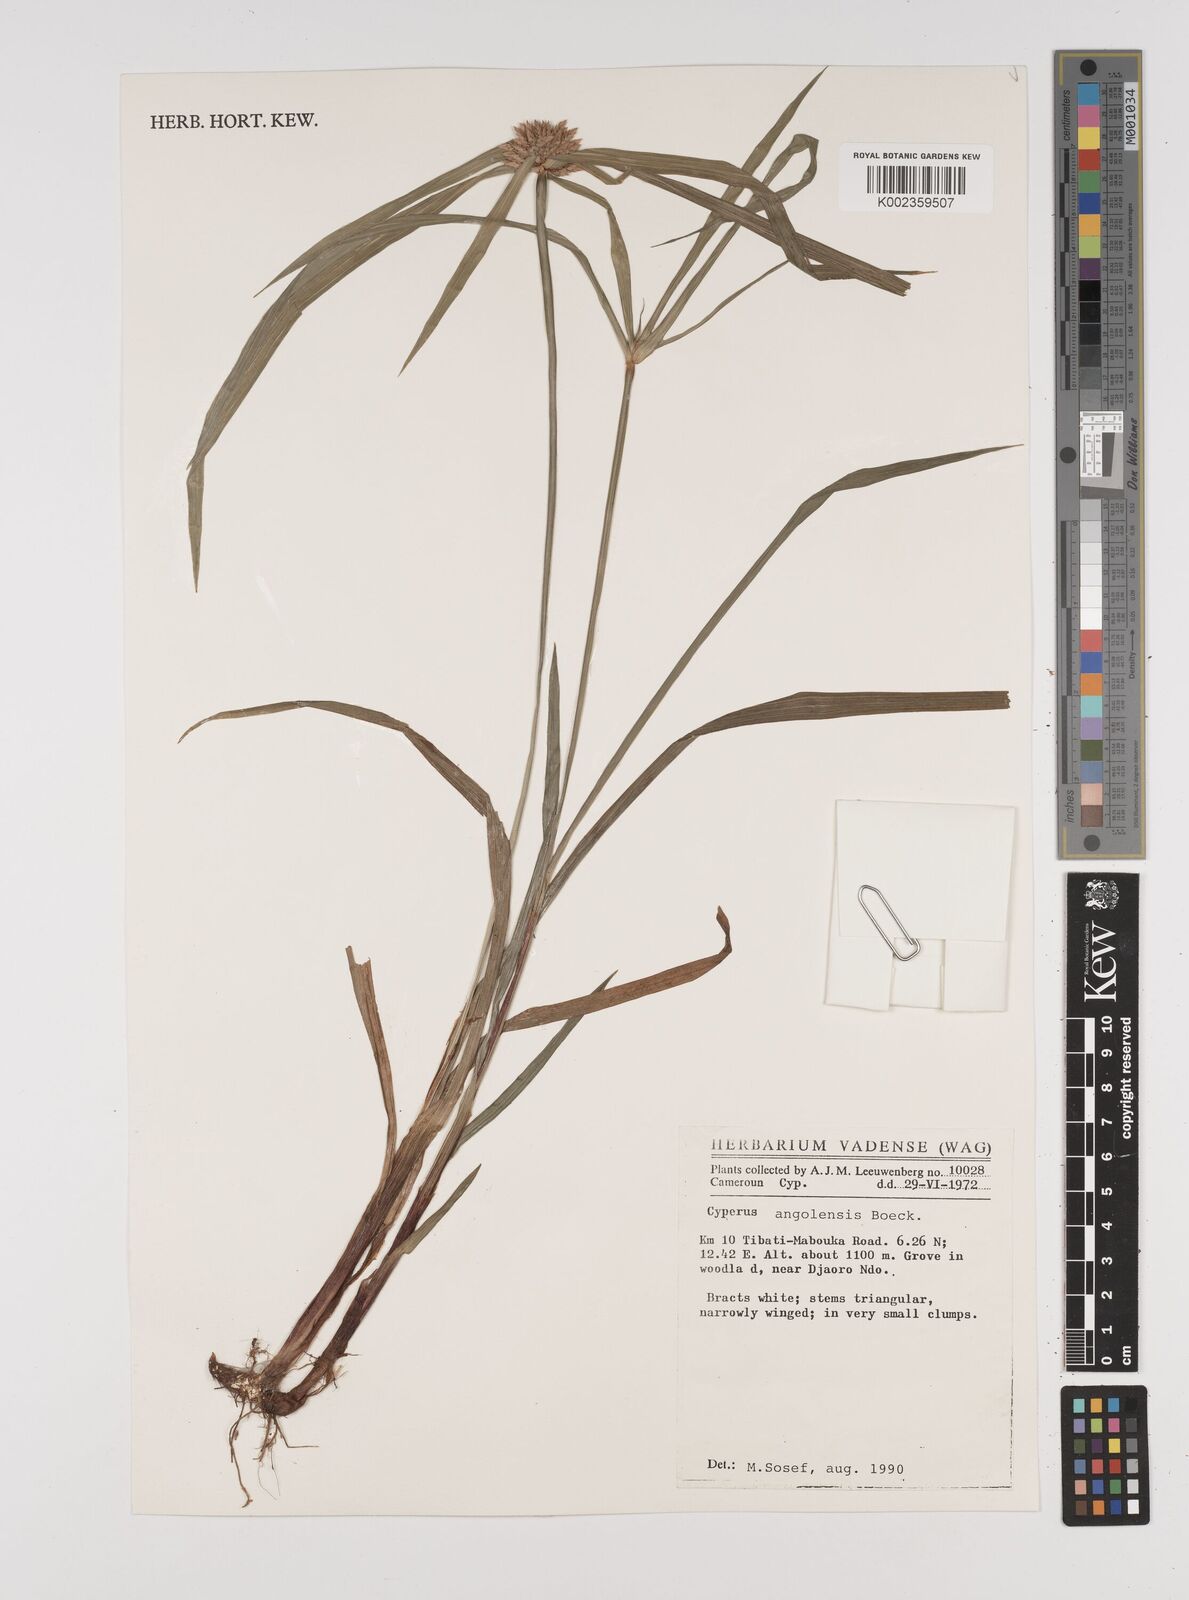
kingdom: Plantae
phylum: Tracheophyta
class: Liliopsida
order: Poales
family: Cyperaceae
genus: Cyperus
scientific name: Cyperus angolensis
